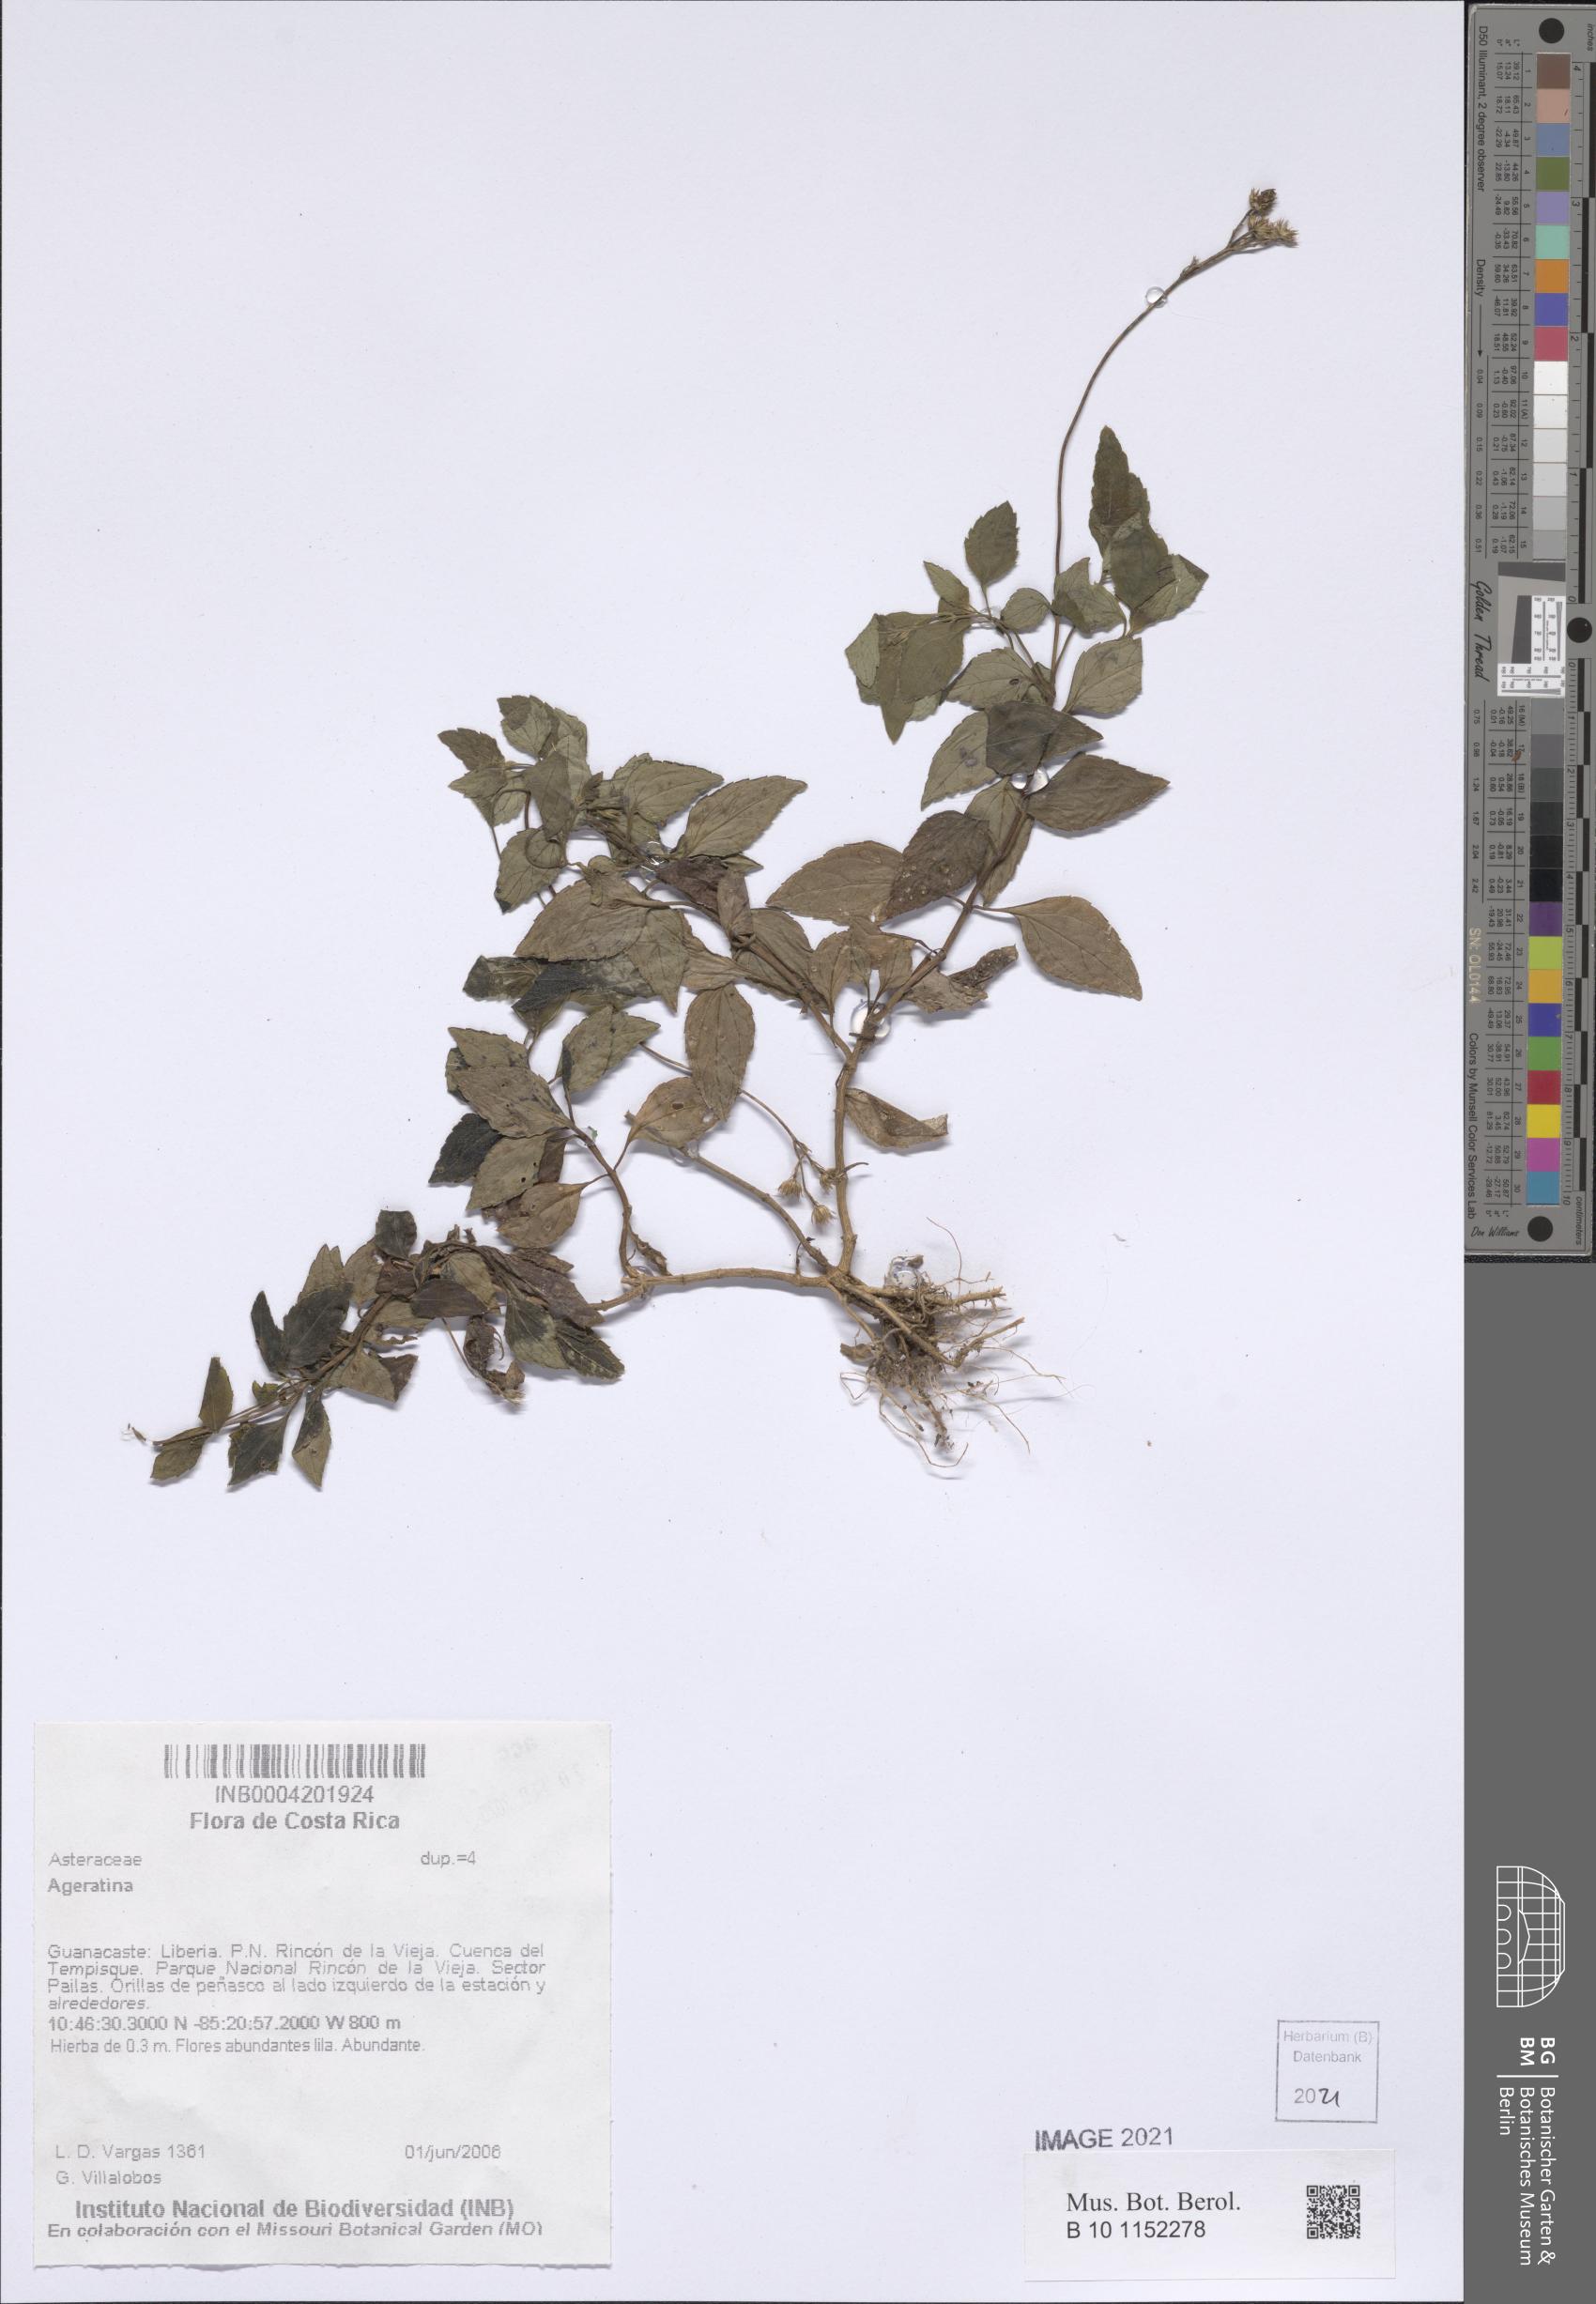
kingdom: Plantae
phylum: Tracheophyta
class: Magnoliopsida
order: Asterales
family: Asteraceae
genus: Ageratina
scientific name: Ageratina
